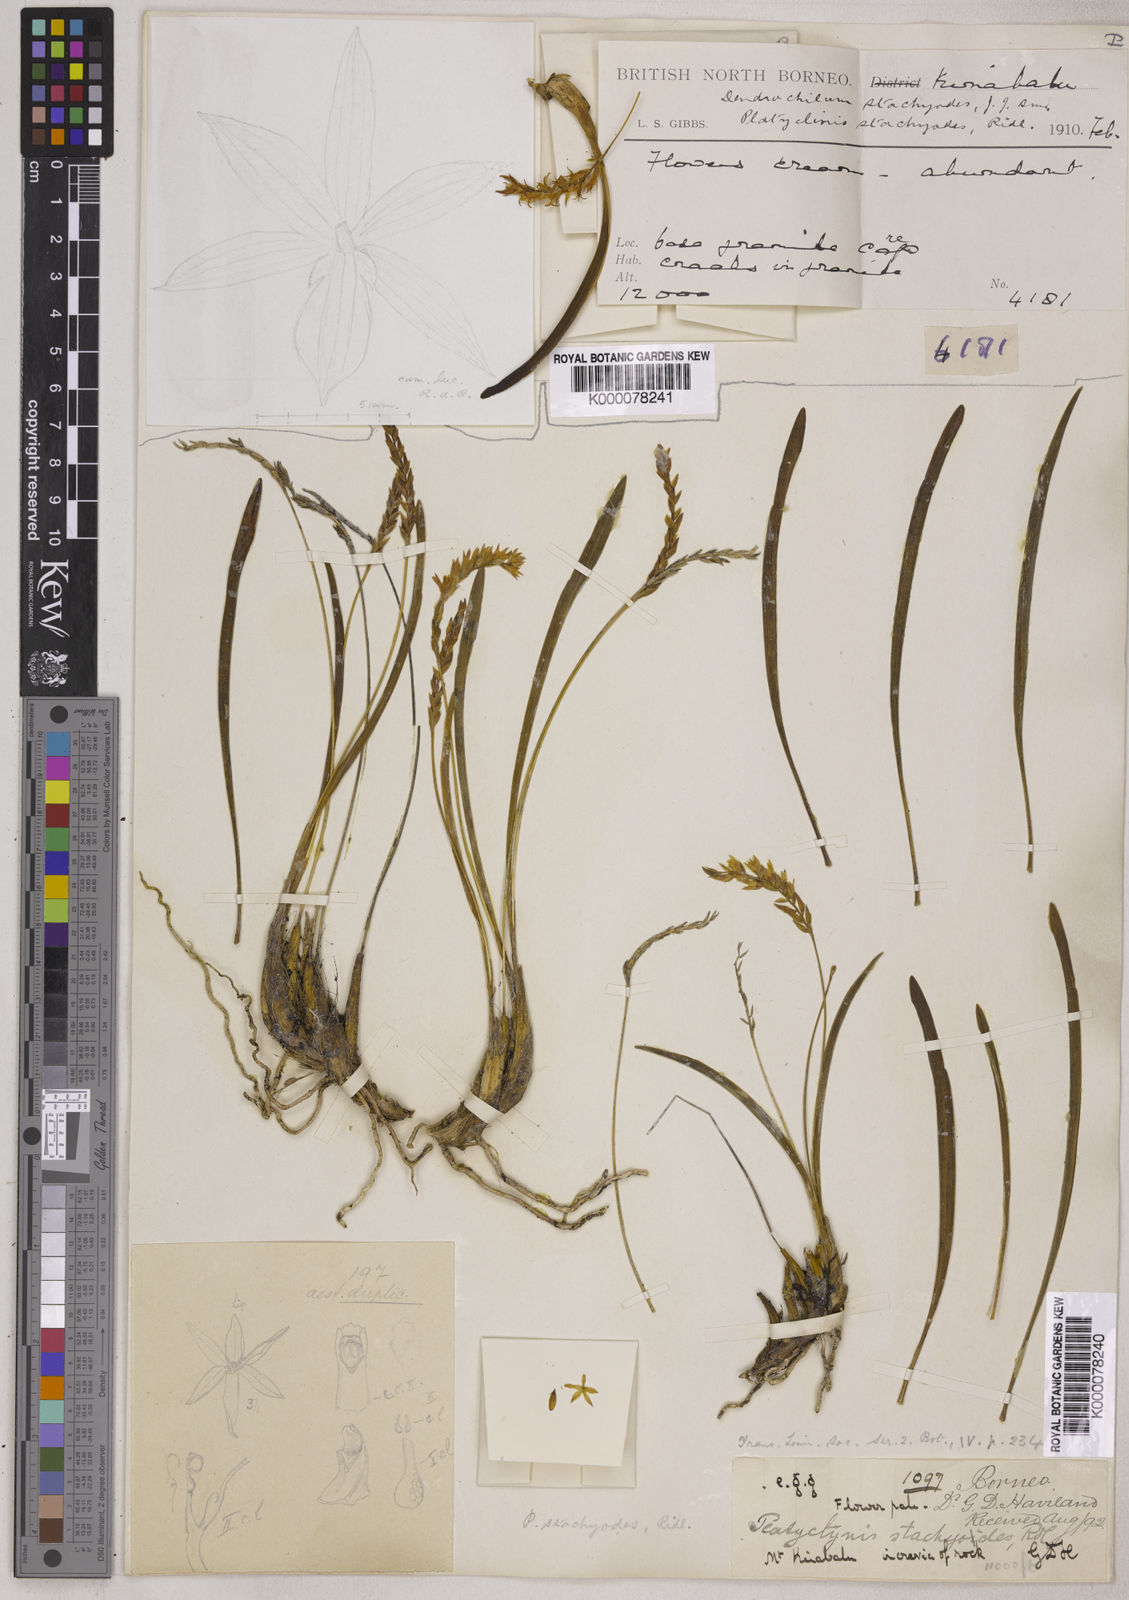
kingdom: Plantae
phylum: Tracheophyta
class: Liliopsida
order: Asparagales
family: Orchidaceae
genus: Coelogyne
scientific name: Coelogyne stachyodes
